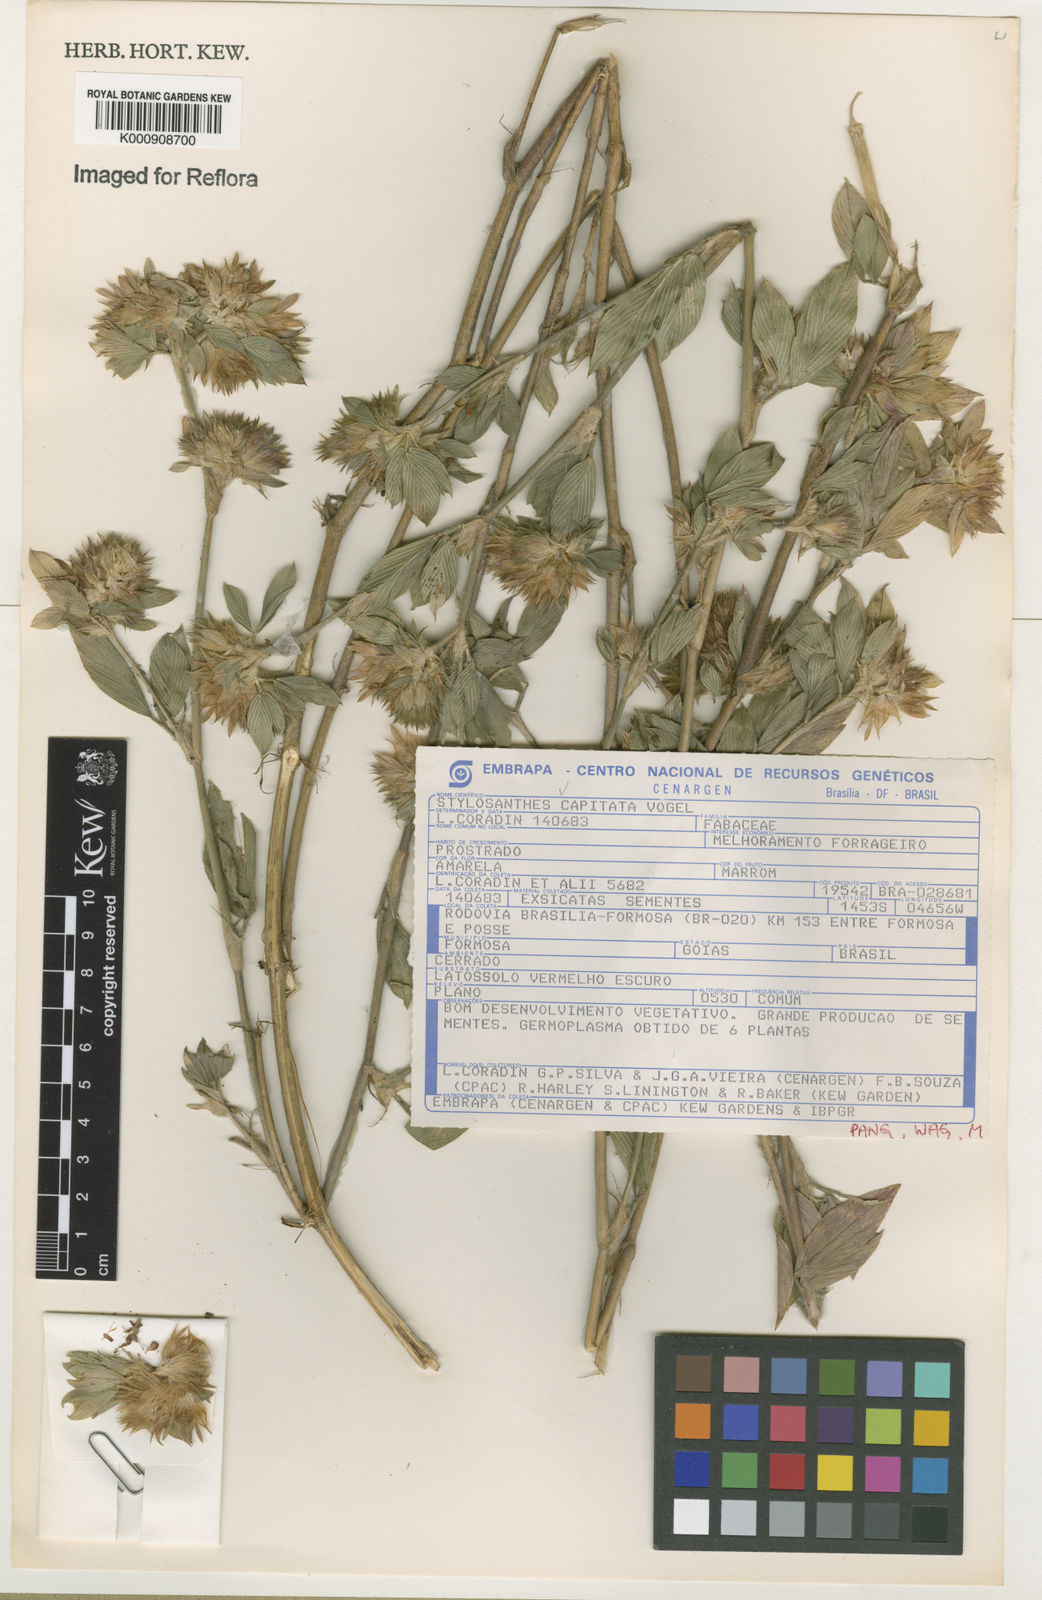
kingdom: Plantae
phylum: Tracheophyta
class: Magnoliopsida
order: Fabales
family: Fabaceae
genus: Stylosanthes
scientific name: Stylosanthes capitata
